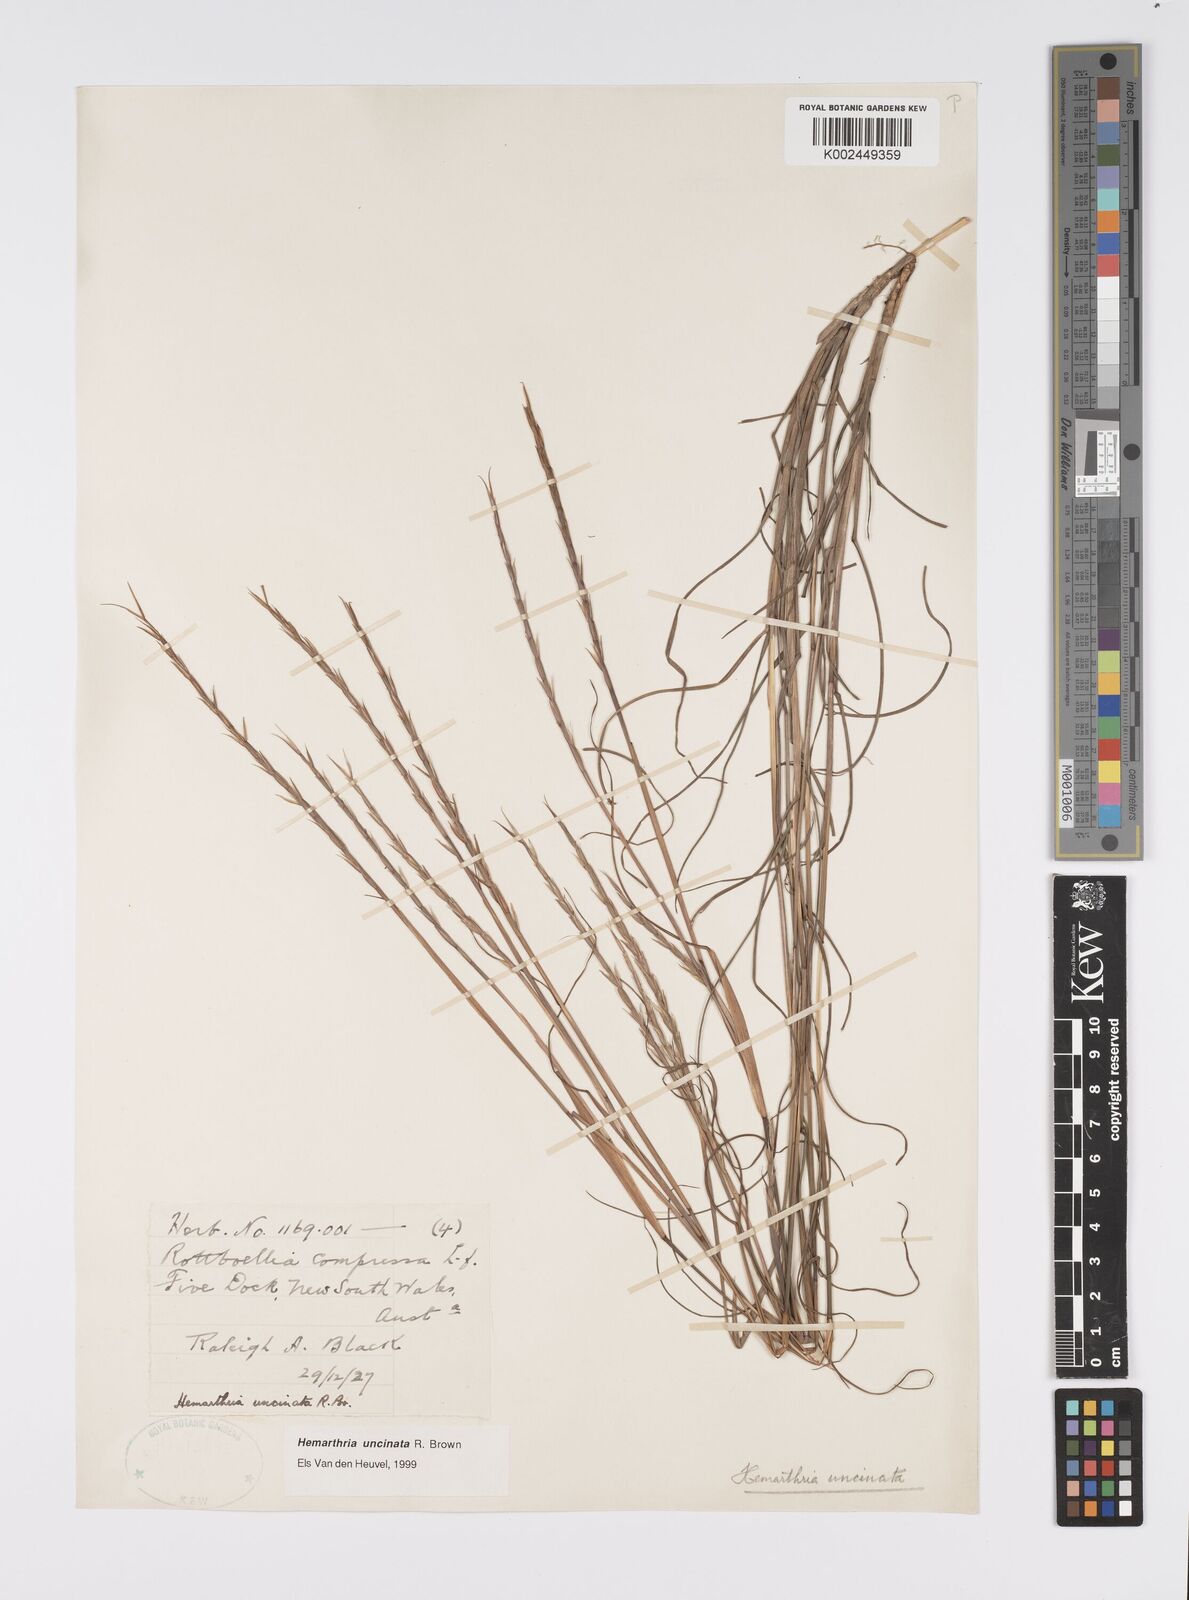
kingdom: Plantae
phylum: Tracheophyta
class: Liliopsida
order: Poales
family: Poaceae
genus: Hemarthria
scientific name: Hemarthria uncinata
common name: Matgrass
